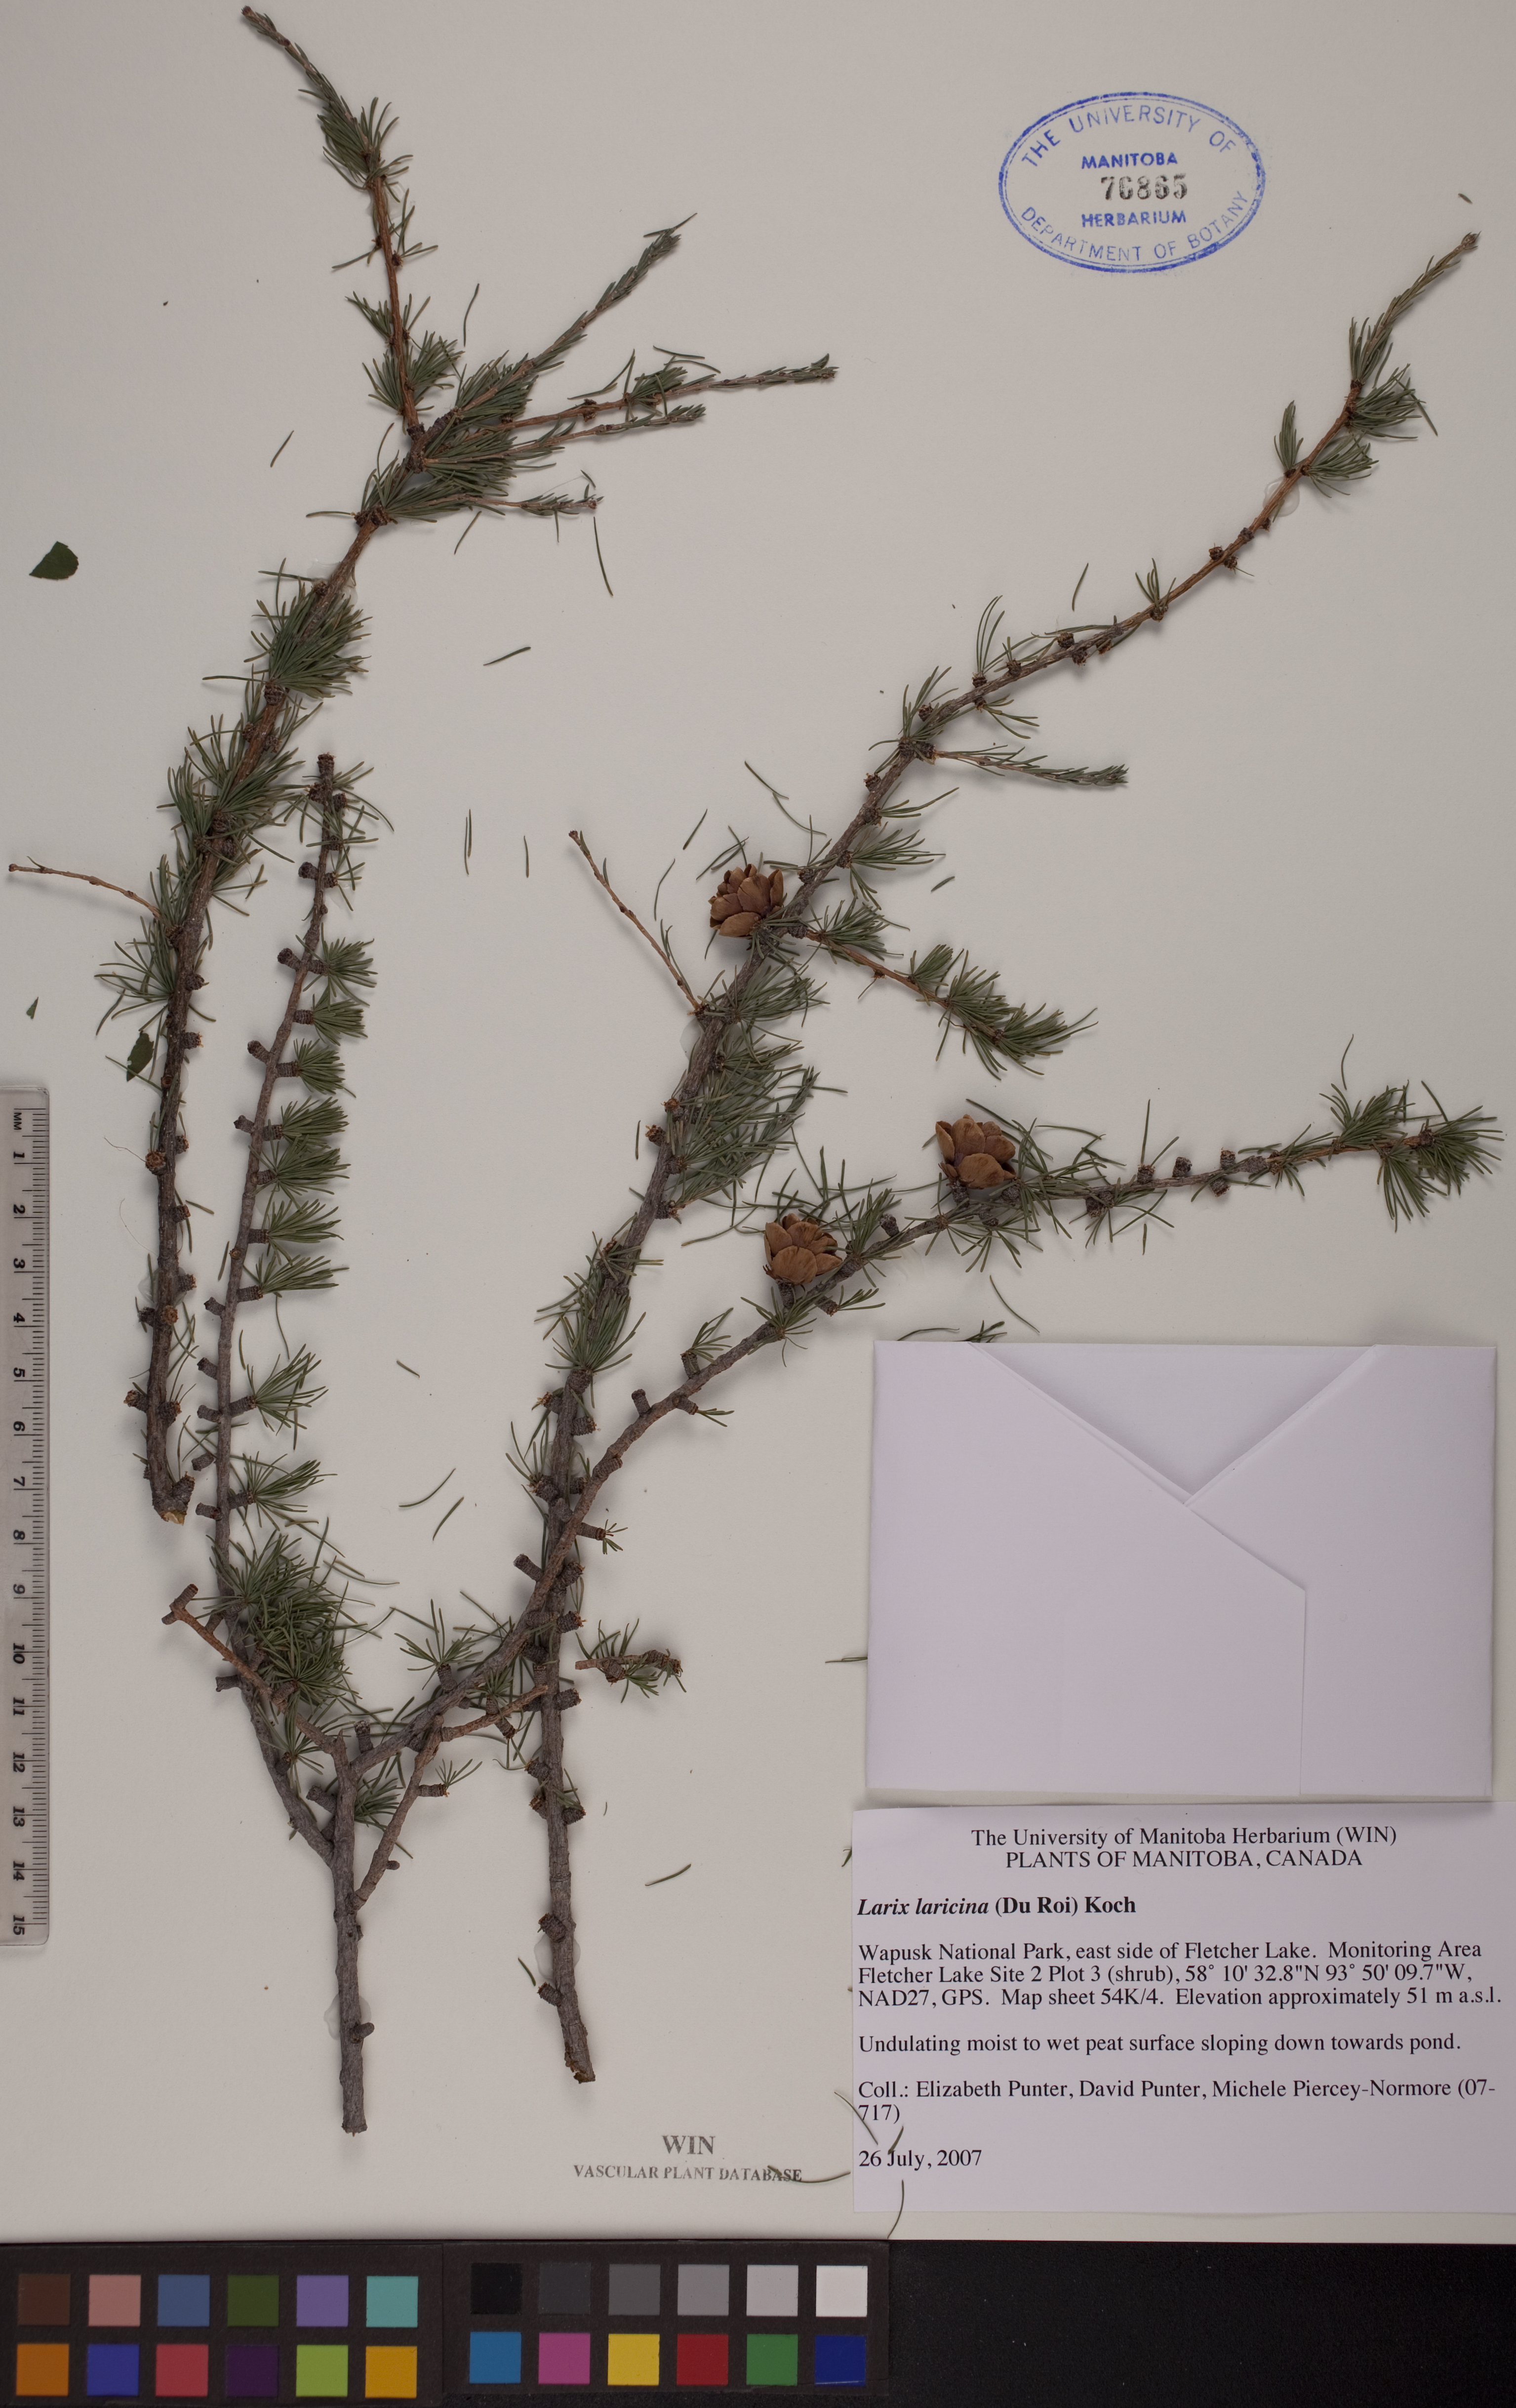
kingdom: Plantae
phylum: Tracheophyta
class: Pinopsida
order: Pinales
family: Pinaceae
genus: Larix
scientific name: Larix laricina
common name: American larch
